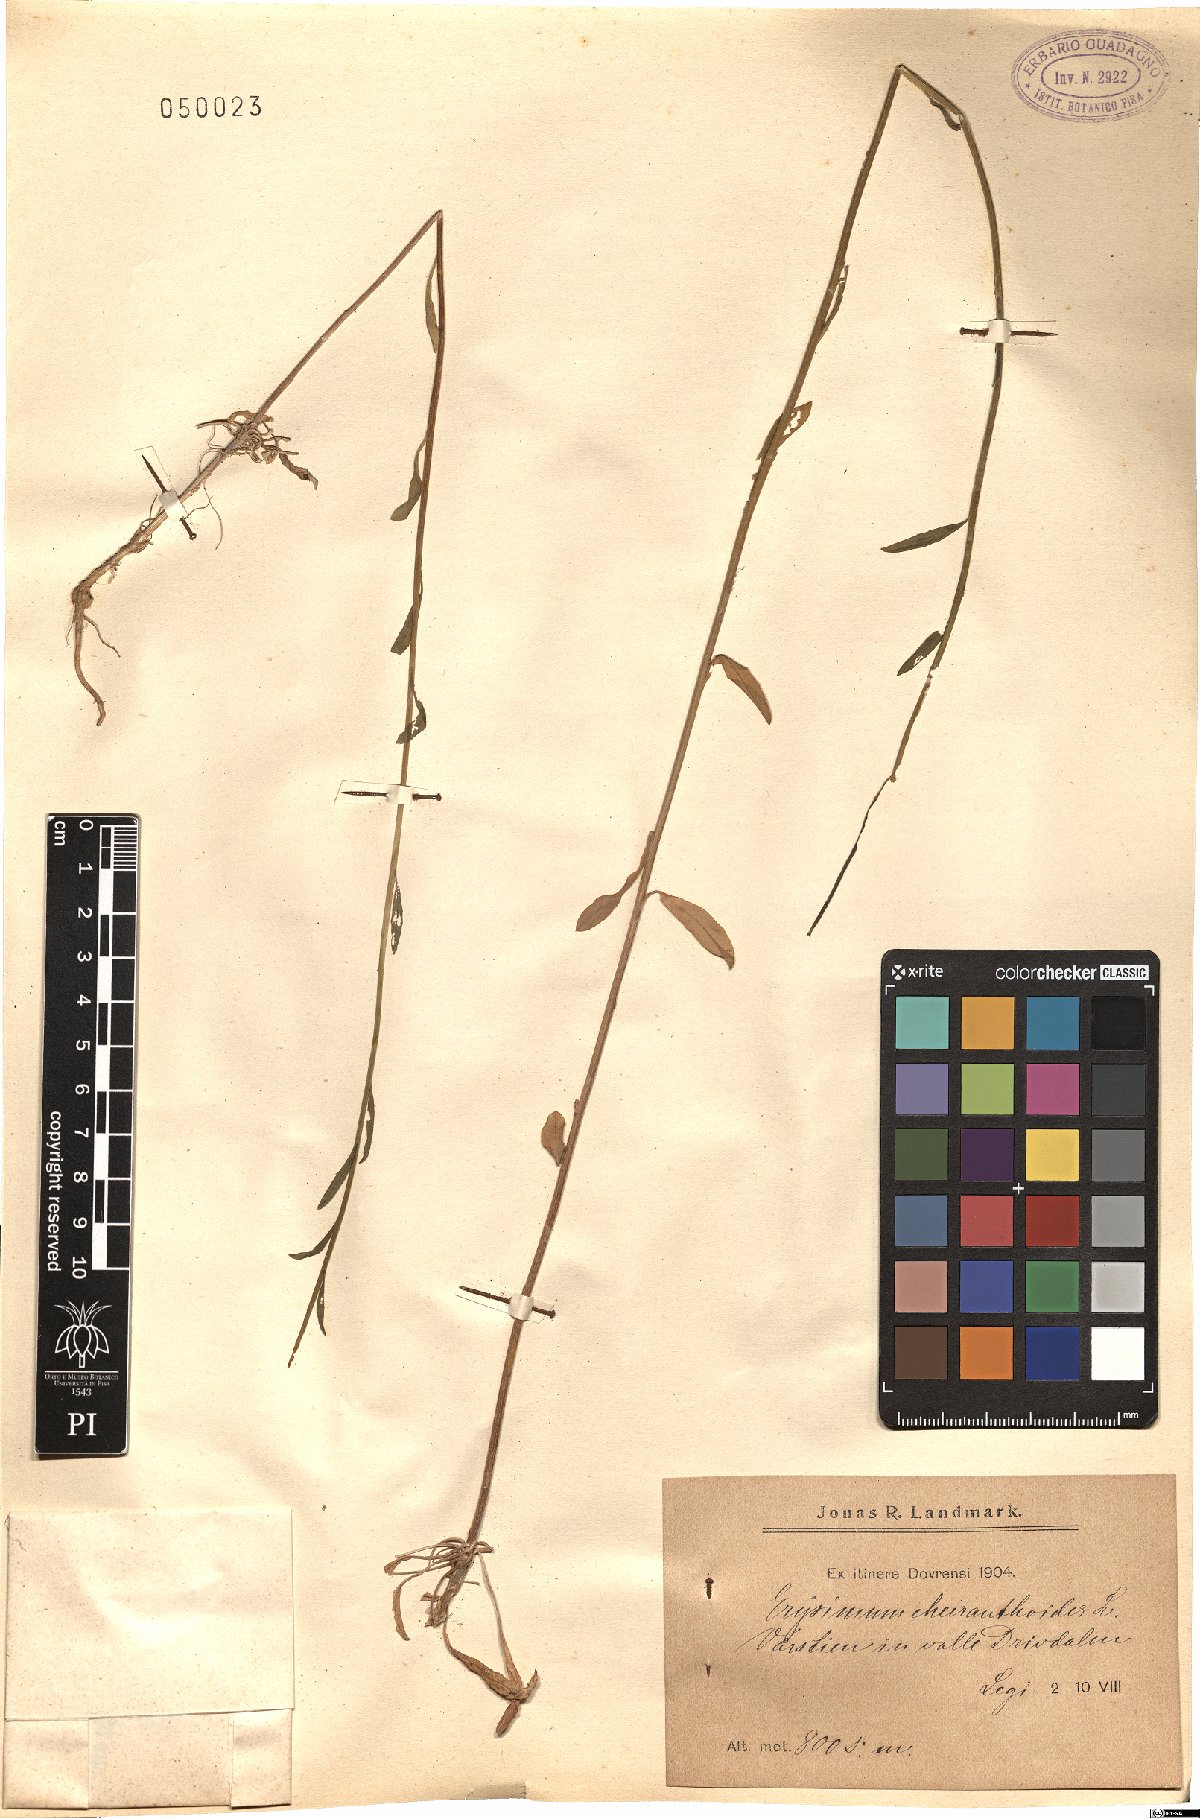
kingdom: Plantae
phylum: Tracheophyta
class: Magnoliopsida
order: Brassicales
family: Brassicaceae
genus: Erysimum
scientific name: Erysimum cheiranthoides
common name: Treacle mustard
